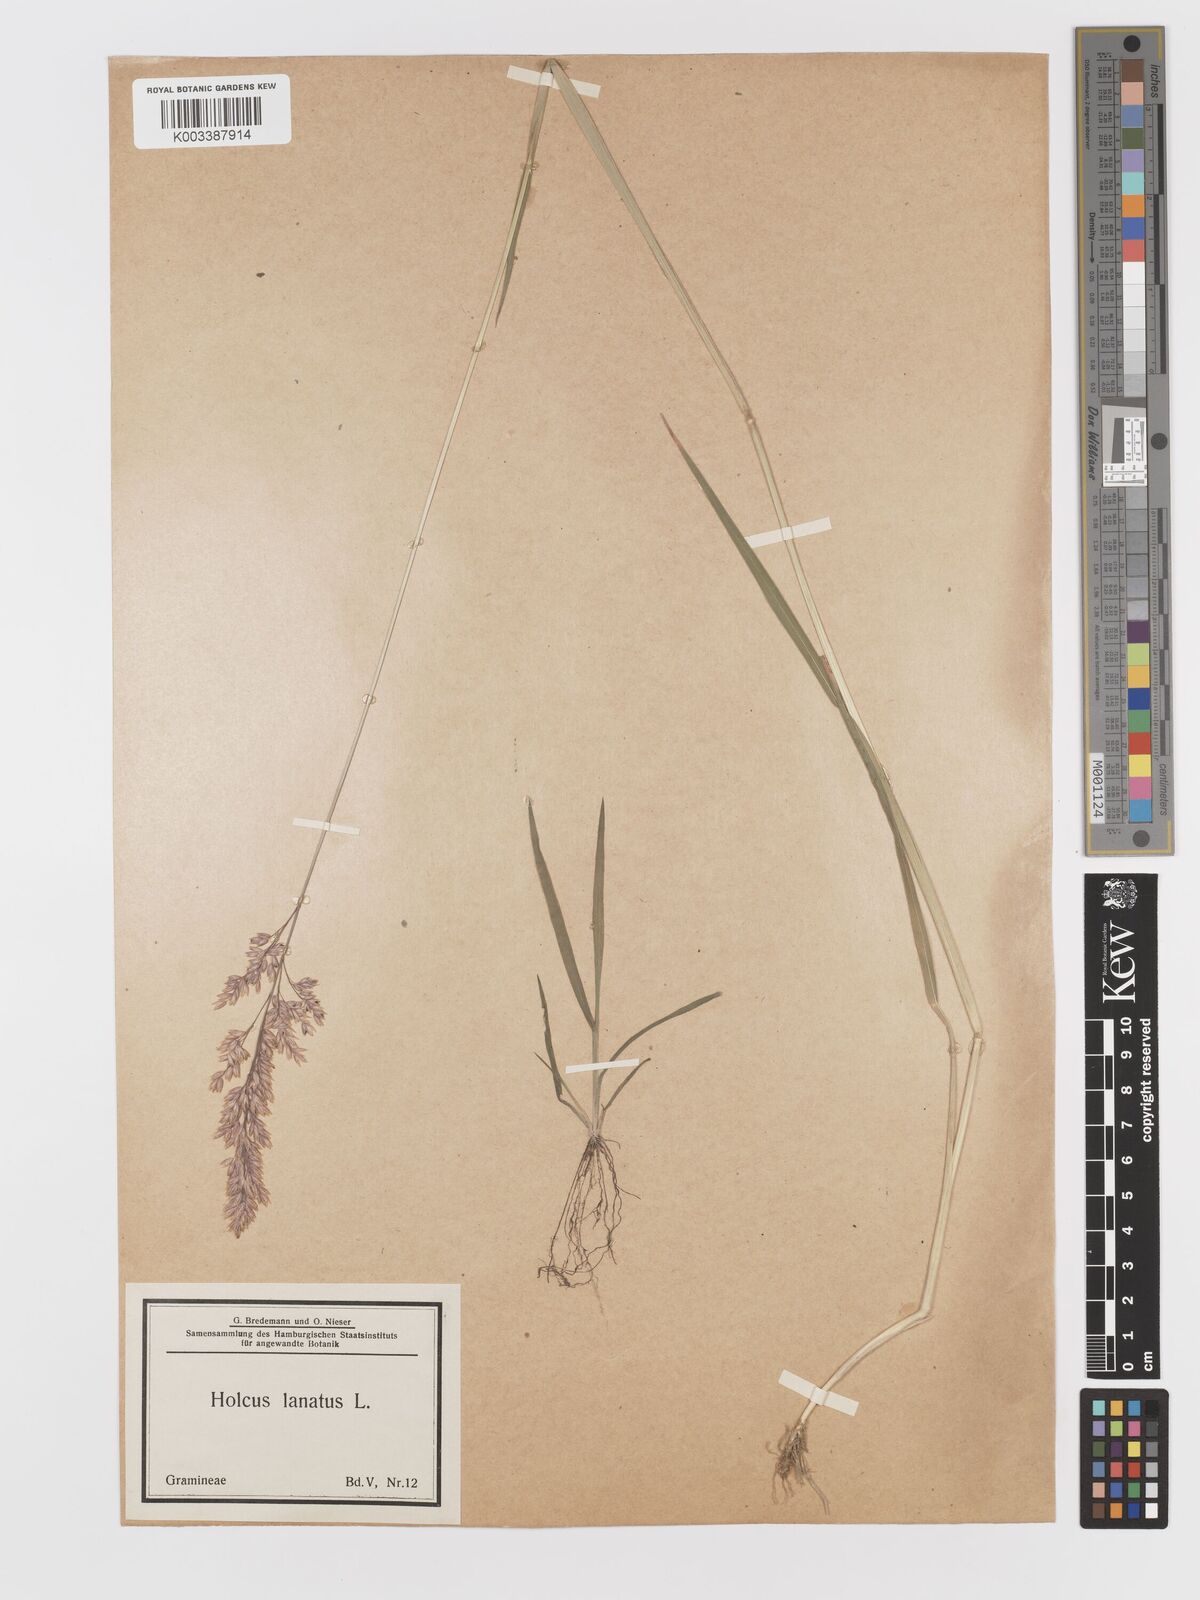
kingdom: Plantae
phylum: Tracheophyta
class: Liliopsida
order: Poales
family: Poaceae
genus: Holcus
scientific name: Holcus lanatus
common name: Yorkshire-fog
